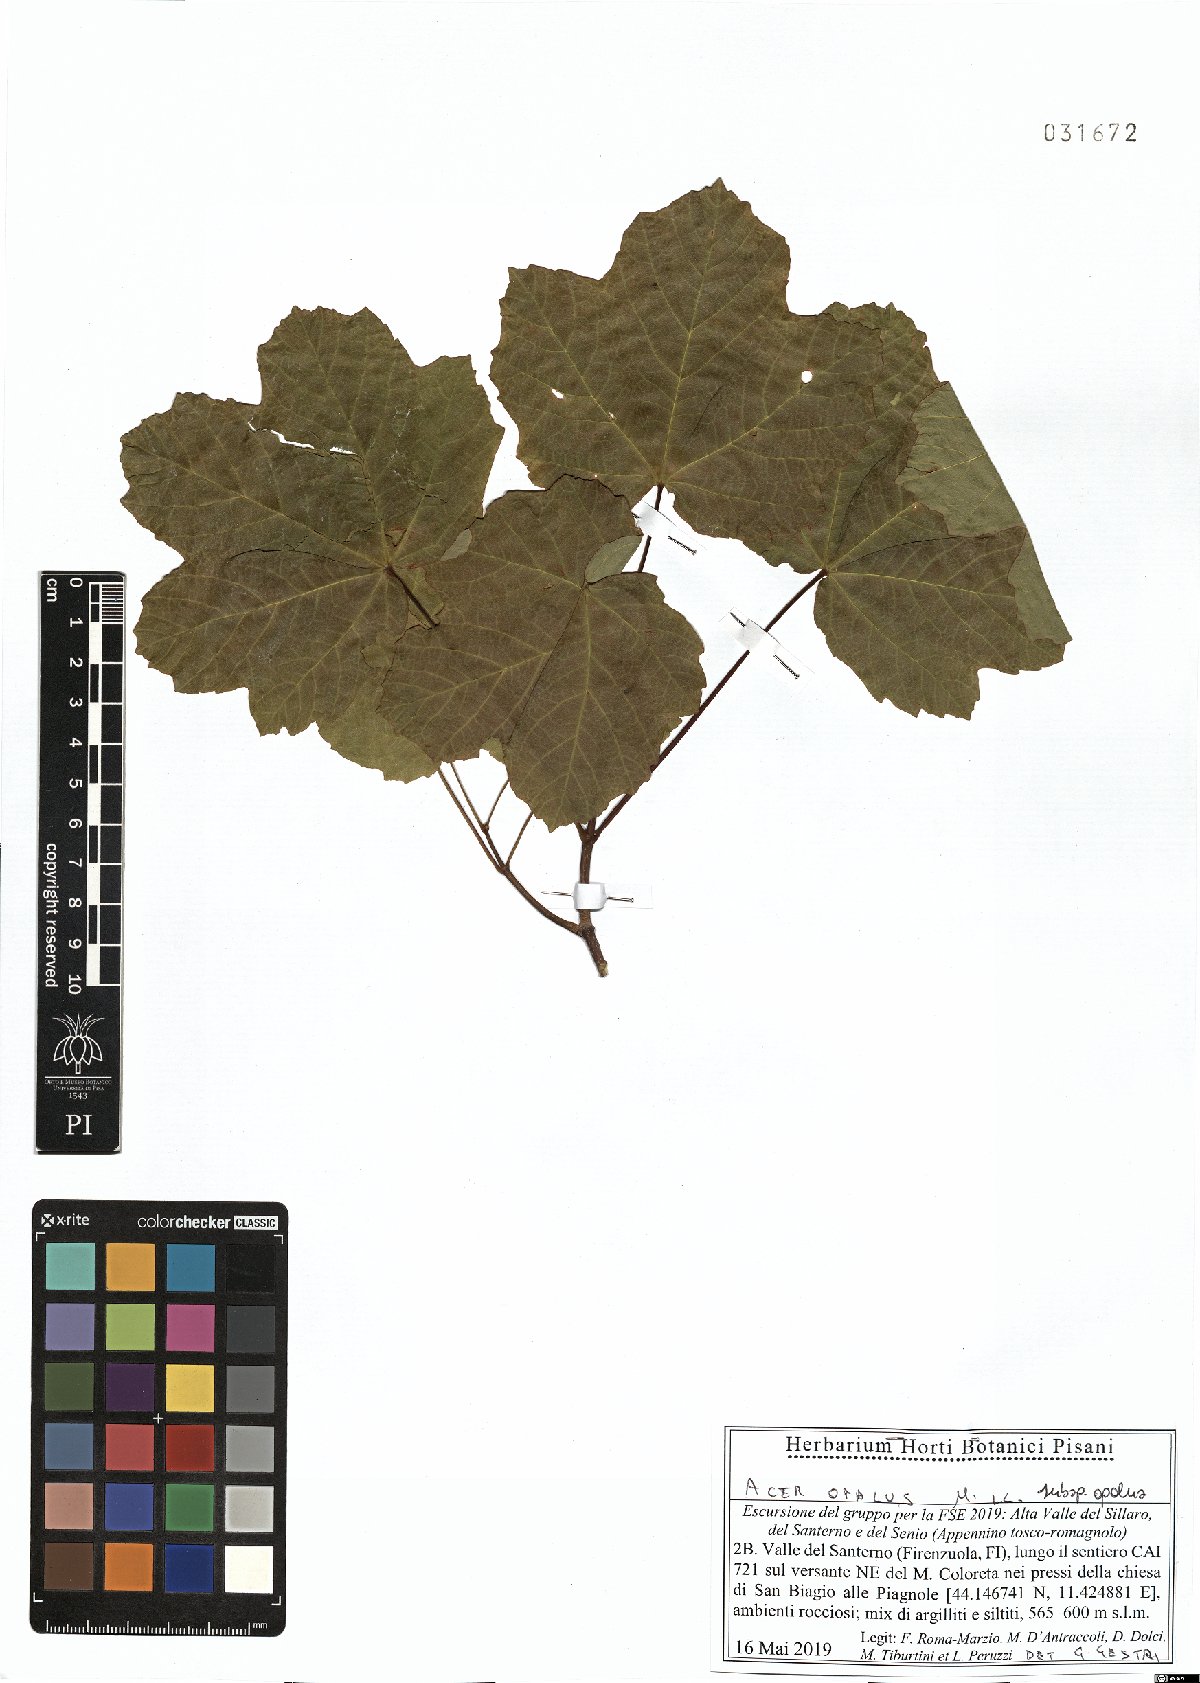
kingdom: Plantae
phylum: Tracheophyta
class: Magnoliopsida
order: Sapindales
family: Sapindaceae
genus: Acer
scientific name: Acer opalus
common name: Italian maple
